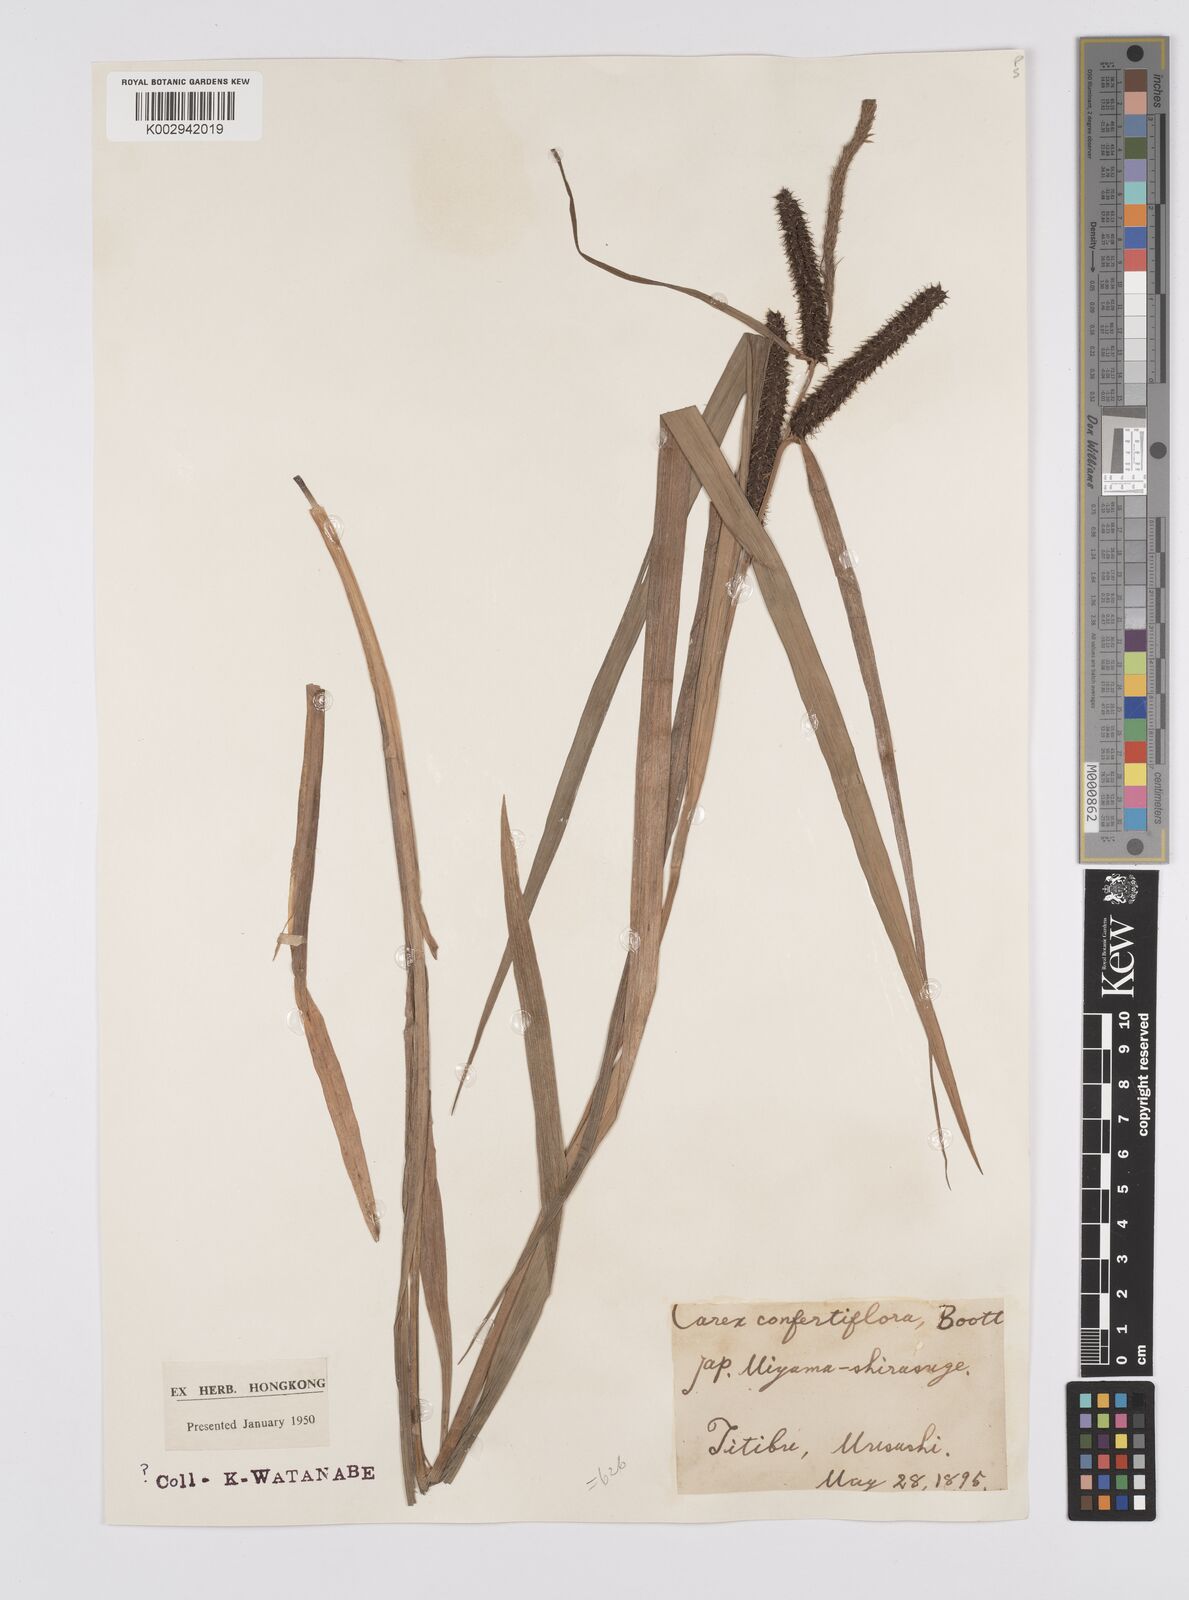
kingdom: Plantae
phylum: Tracheophyta
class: Liliopsida
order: Poales
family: Cyperaceae
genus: Carex
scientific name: Carex olivacea
